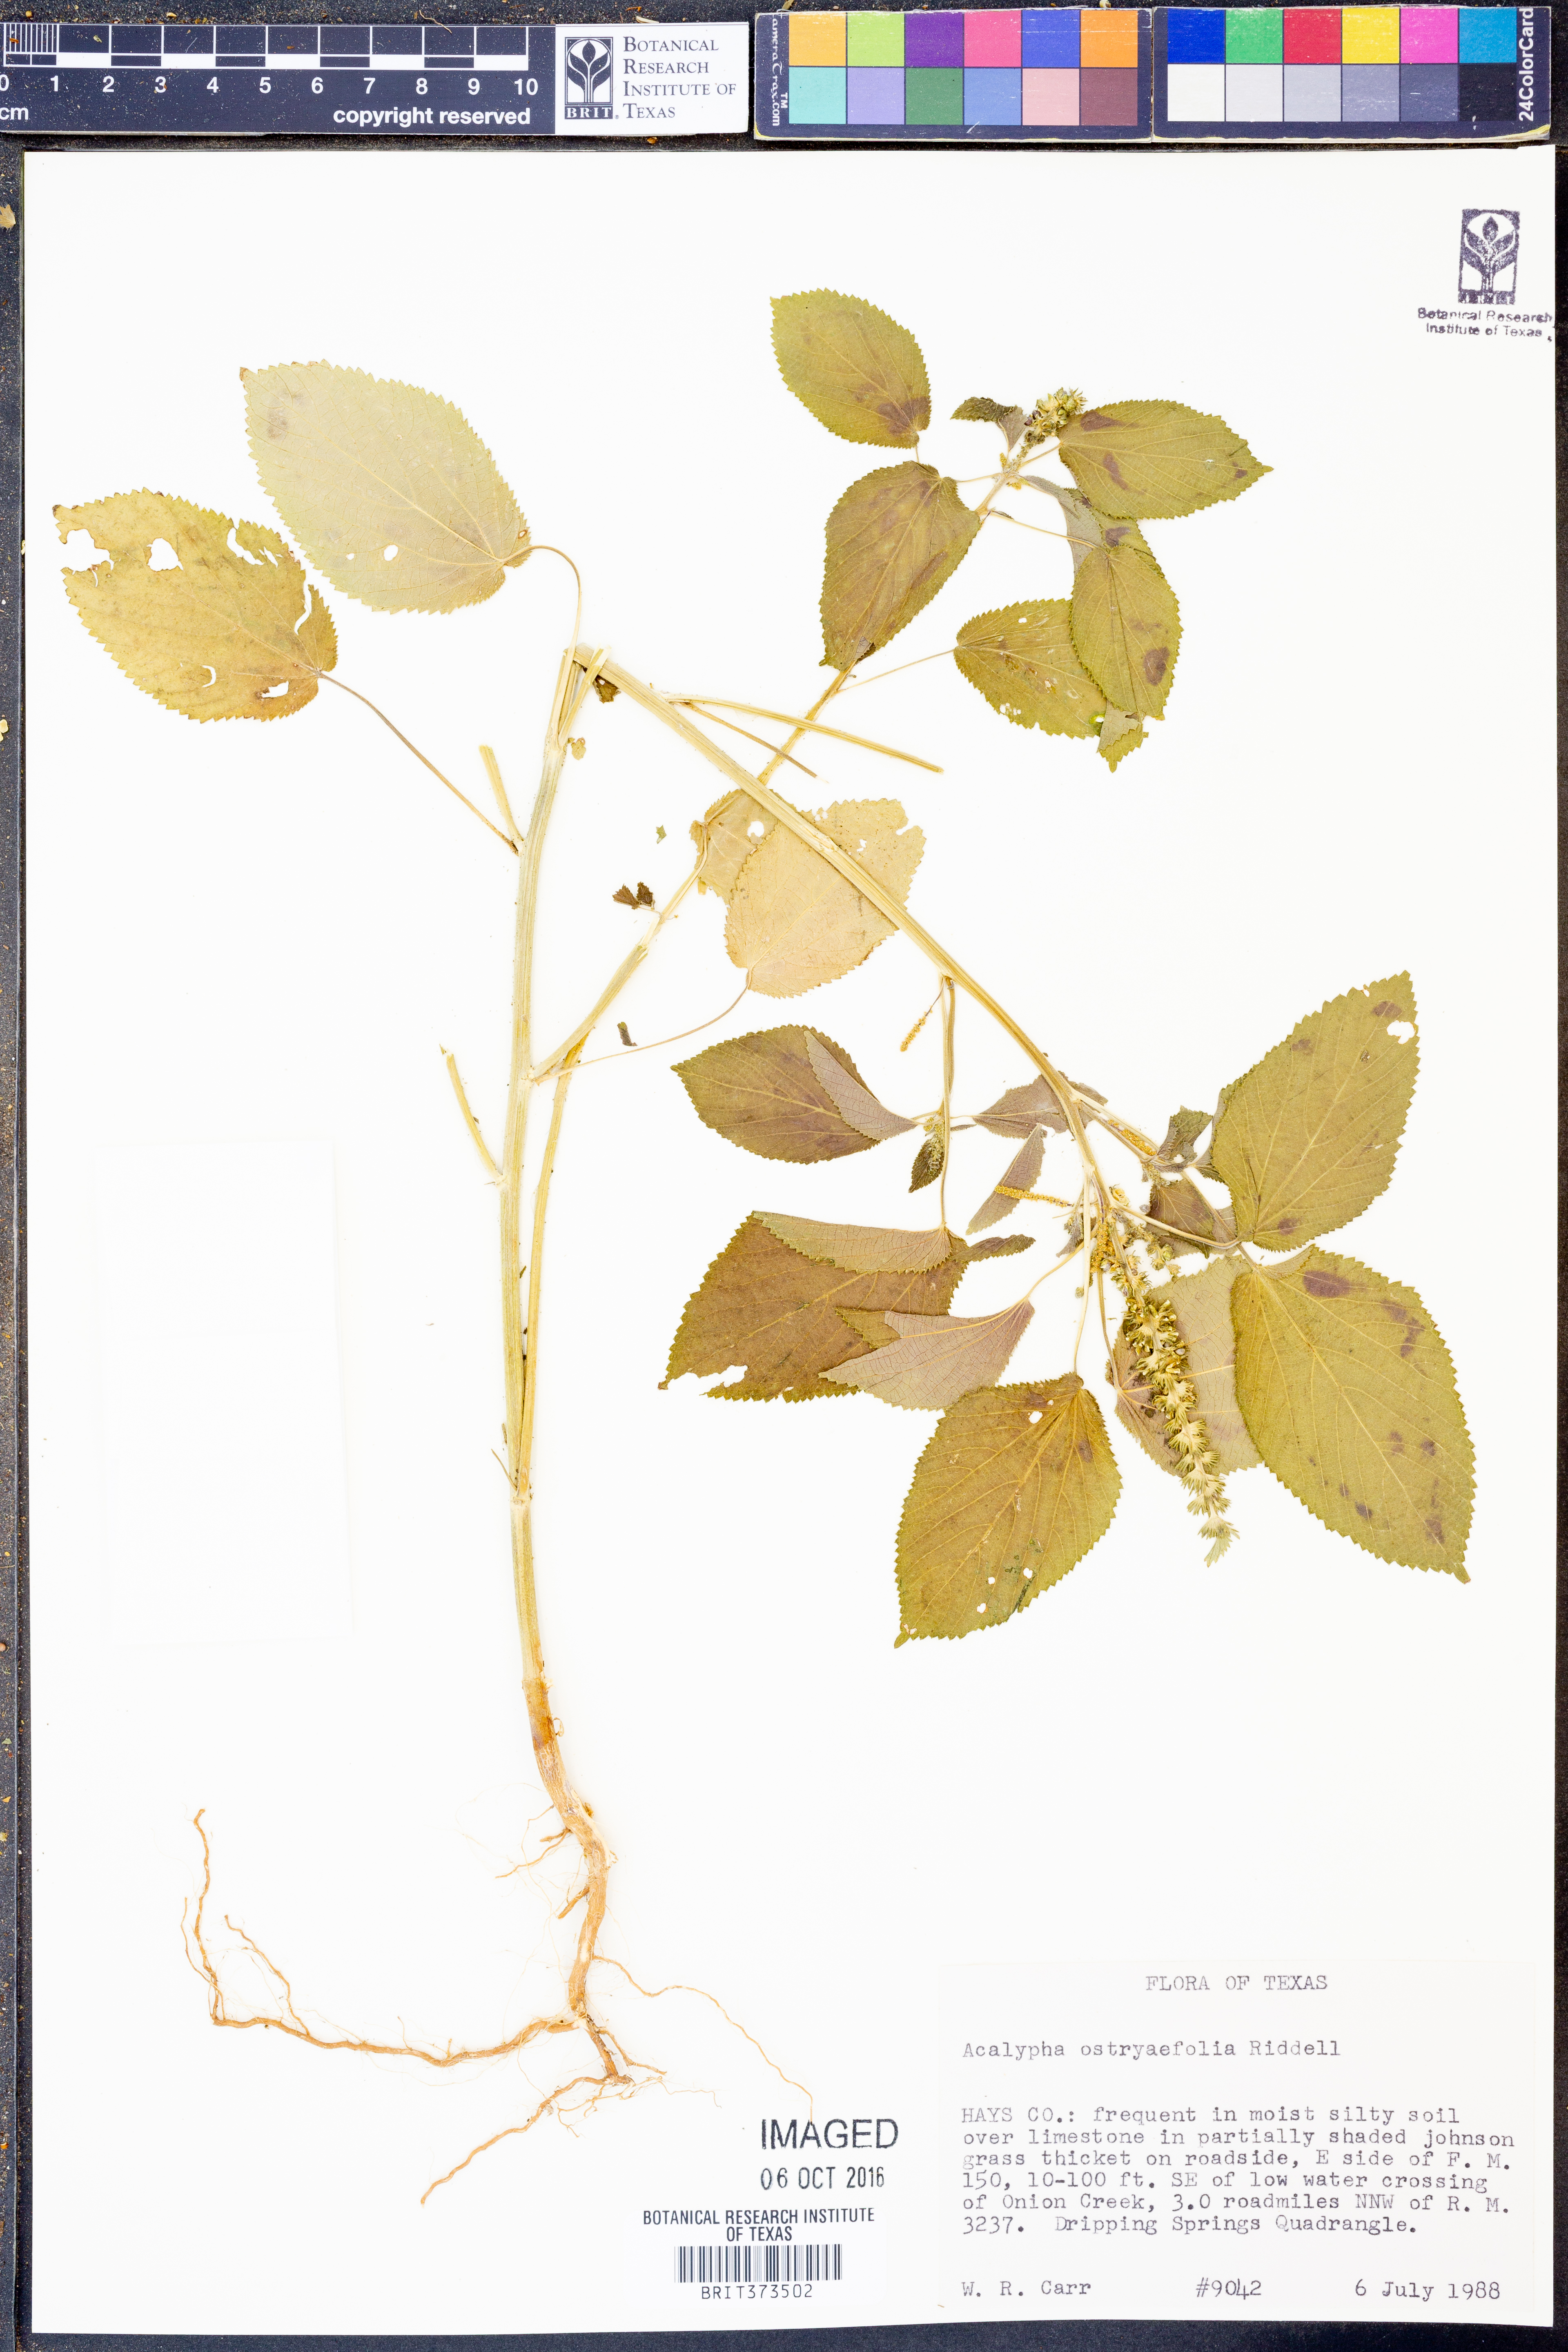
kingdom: Plantae
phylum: Tracheophyta
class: Magnoliopsida
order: Malpighiales
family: Euphorbiaceae
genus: Acalypha
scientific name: Acalypha ostryifolia
